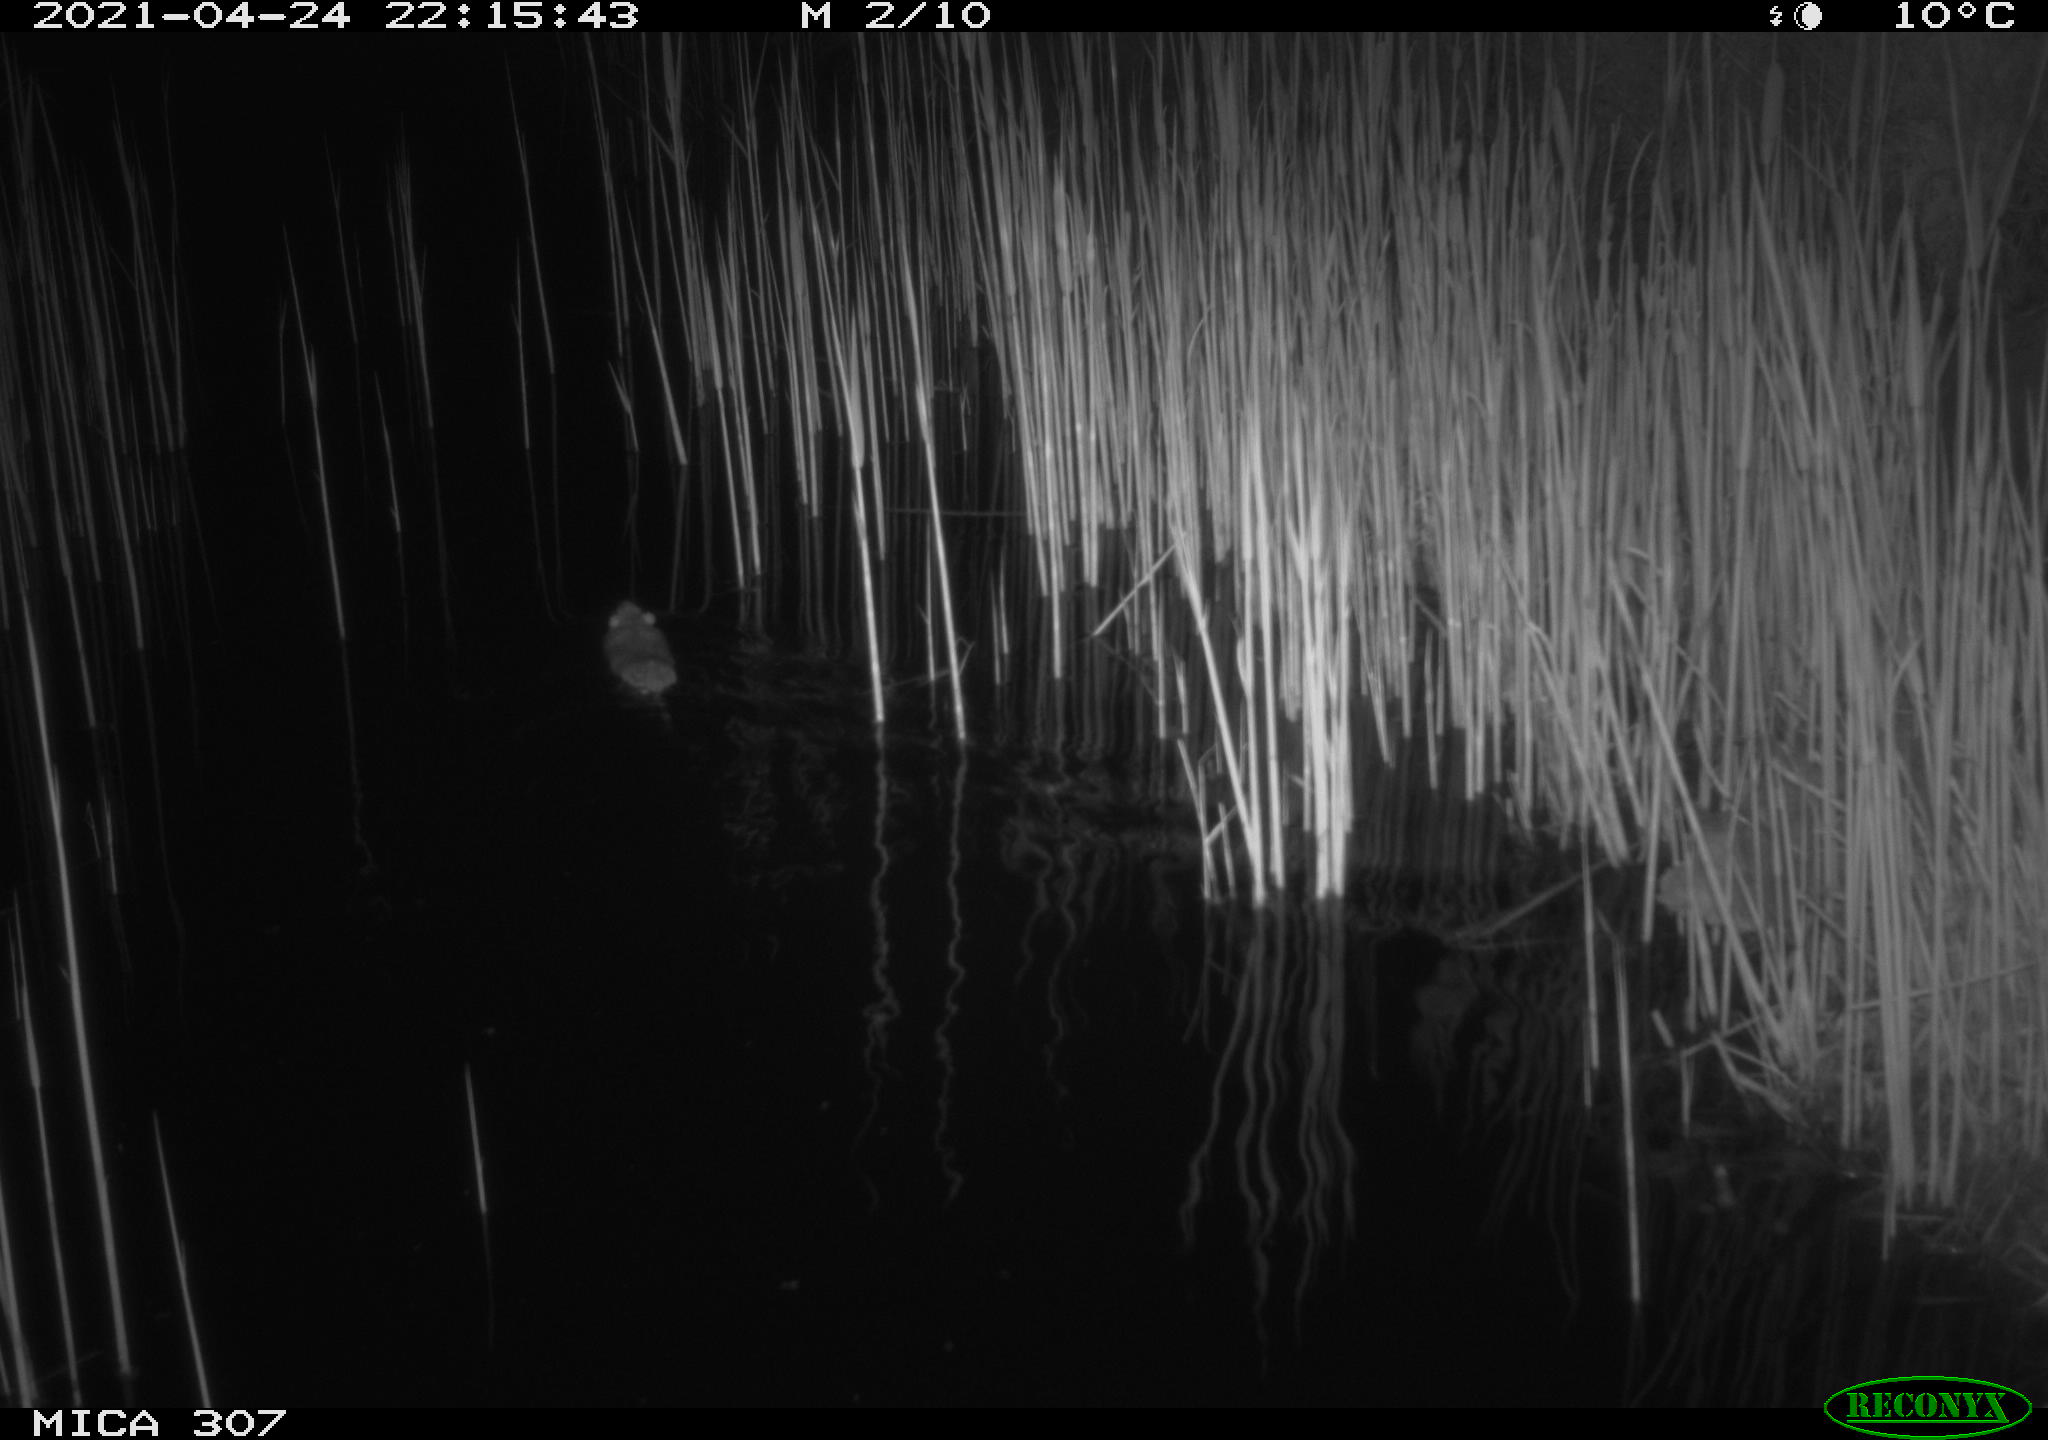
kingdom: Animalia
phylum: Chordata
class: Aves
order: Gruiformes
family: Rallidae
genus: Gallinula
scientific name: Gallinula chloropus
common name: Common moorhen
